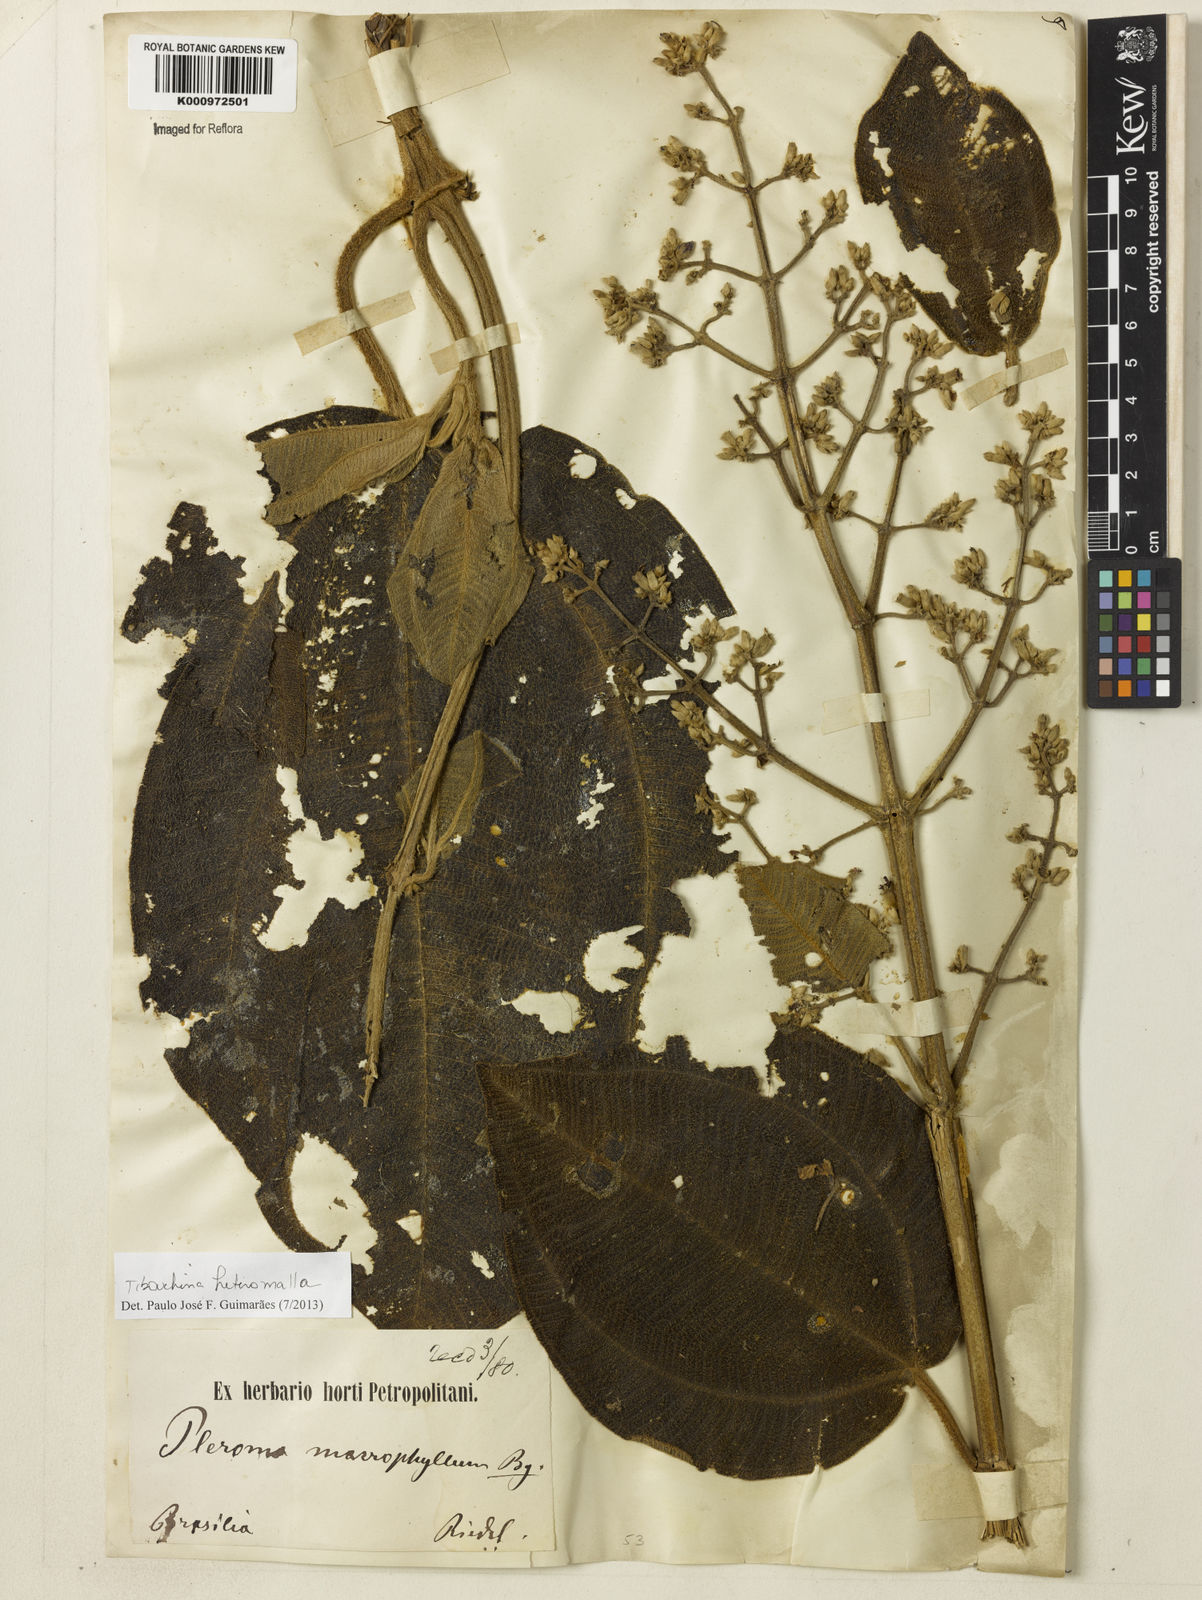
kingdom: Plantae
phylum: Tracheophyta
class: Magnoliopsida
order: Myrtales
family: Melastomataceae
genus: Pleroma
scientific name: Pleroma heteromallum
